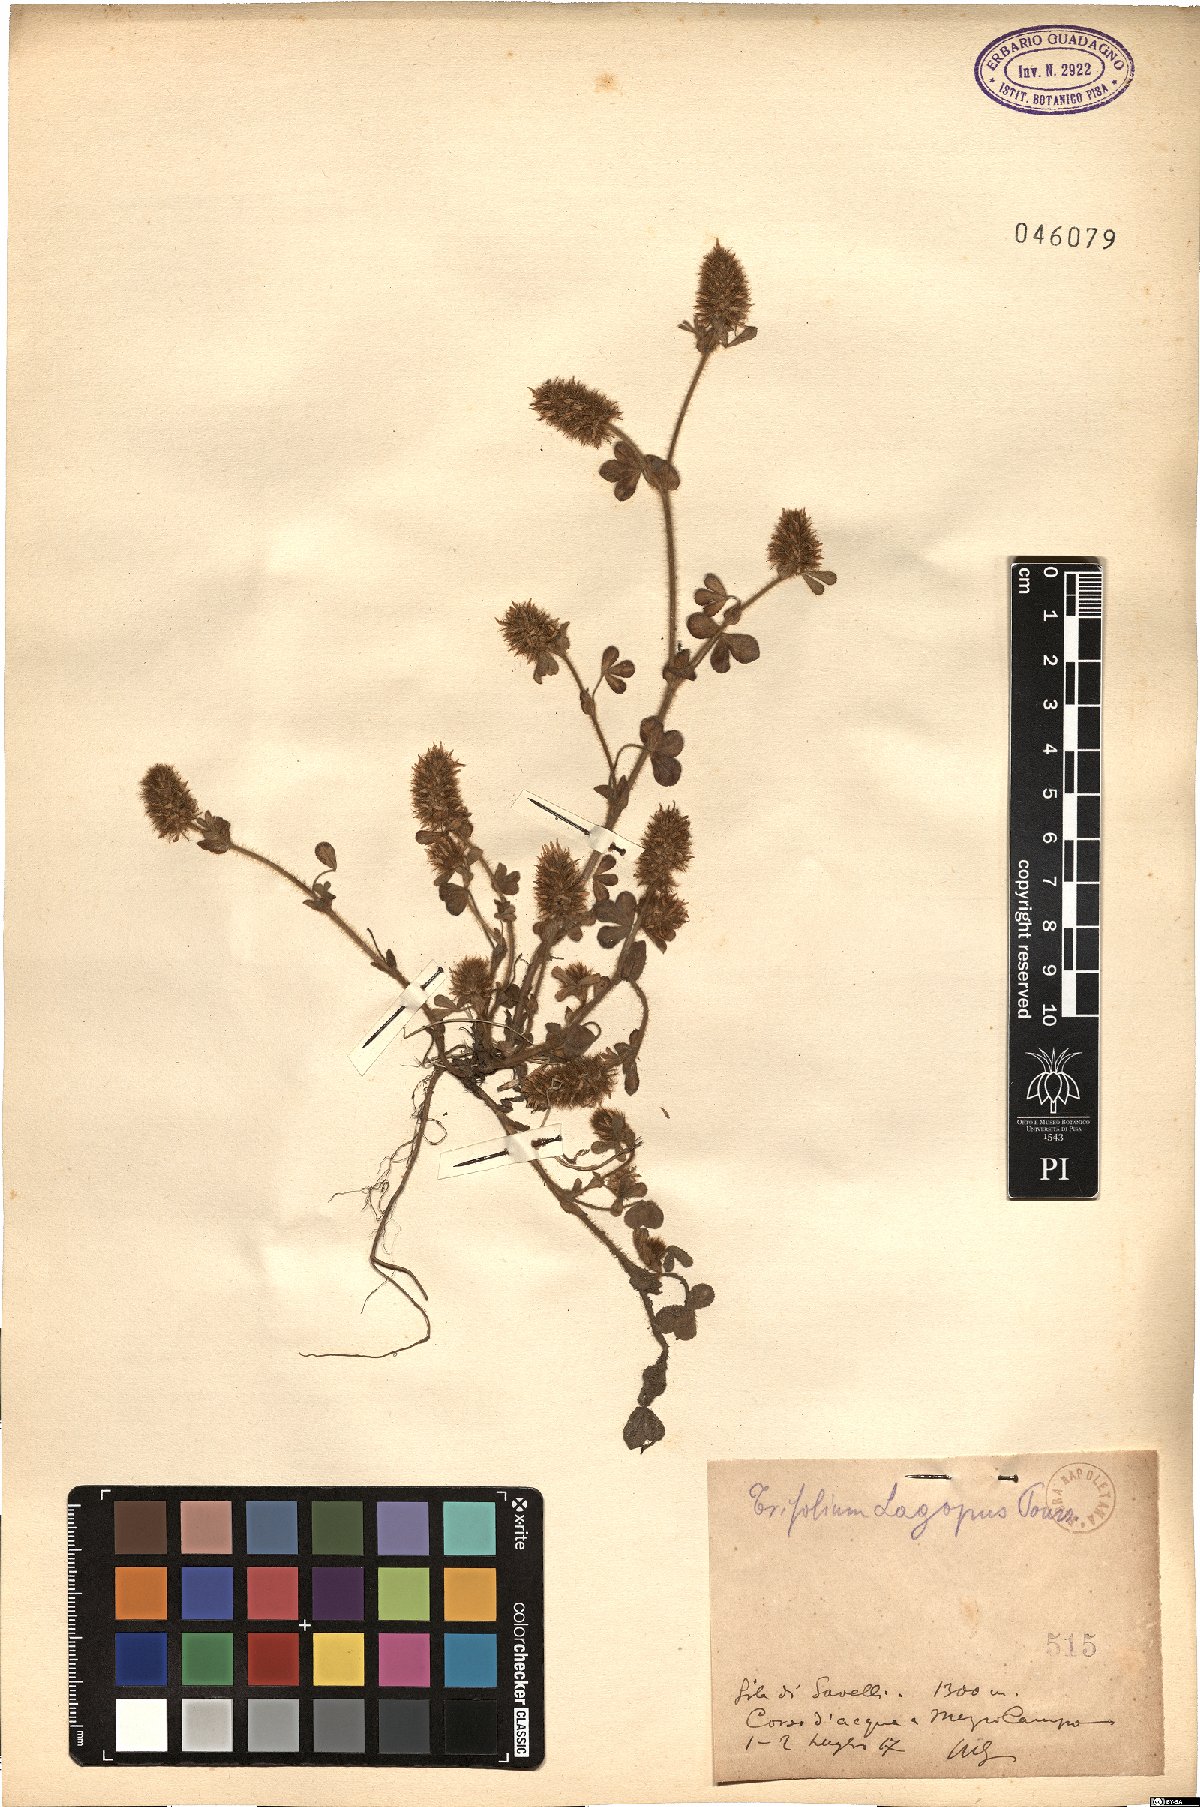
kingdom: Plantae
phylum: Tracheophyta
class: Magnoliopsida
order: Fabales
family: Fabaceae
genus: Trifolium
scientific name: Trifolium sylvaticum
